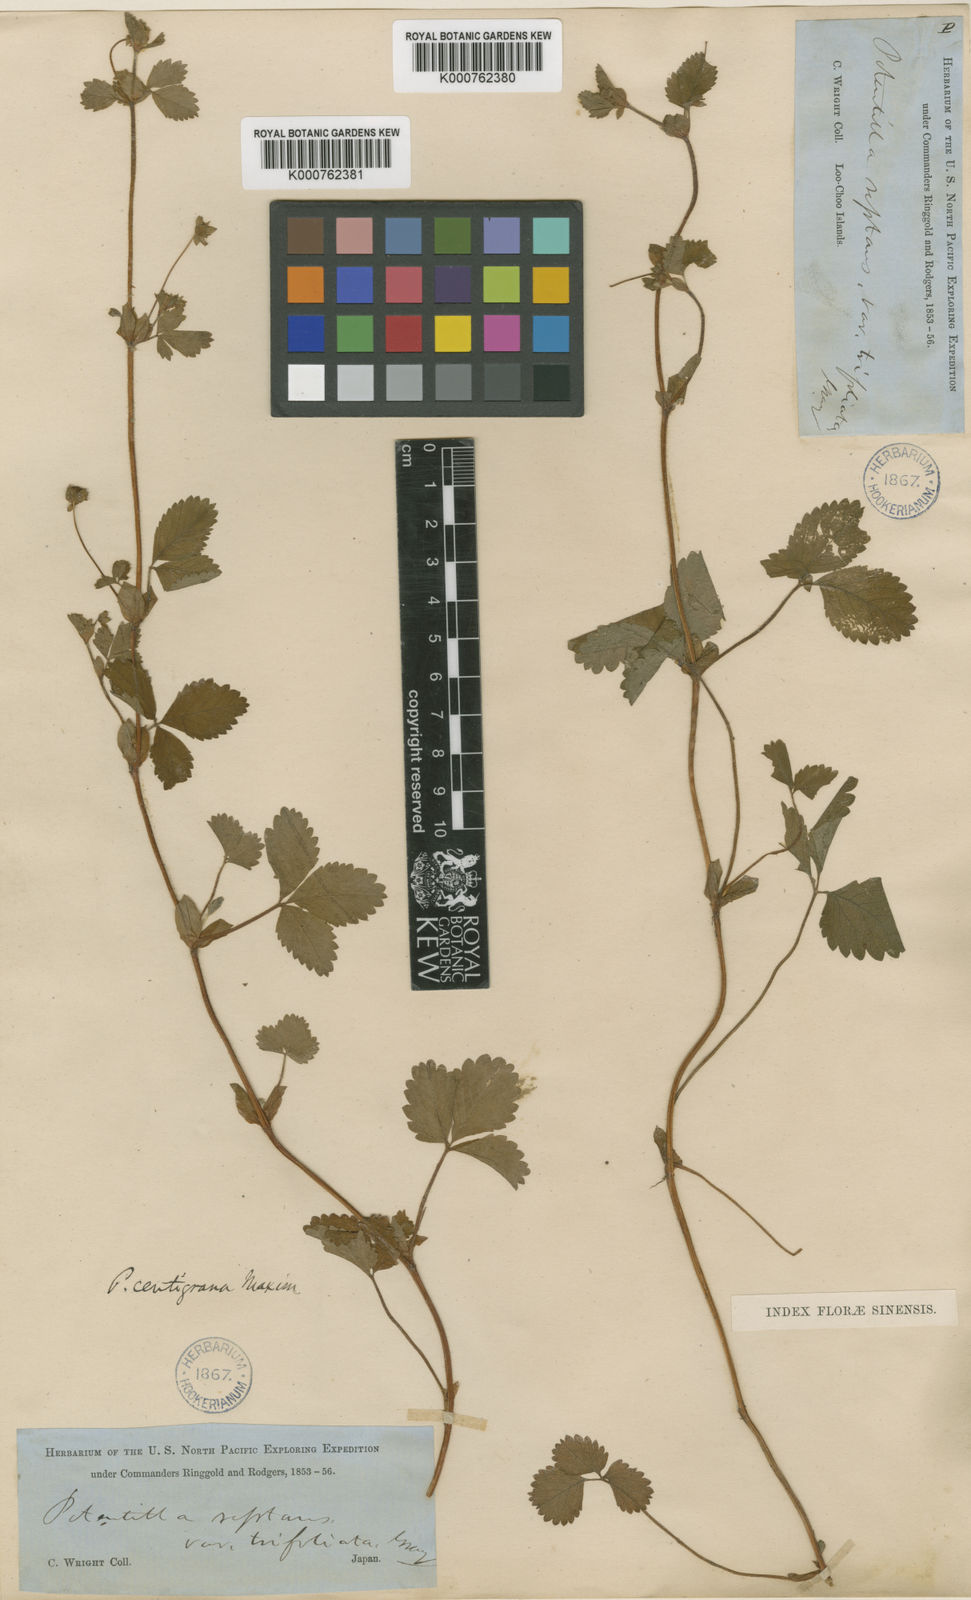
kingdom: Plantae
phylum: Tracheophyta
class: Magnoliopsida
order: Rosales
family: Rosaceae
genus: Potentilla
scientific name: Potentilla centigrana
